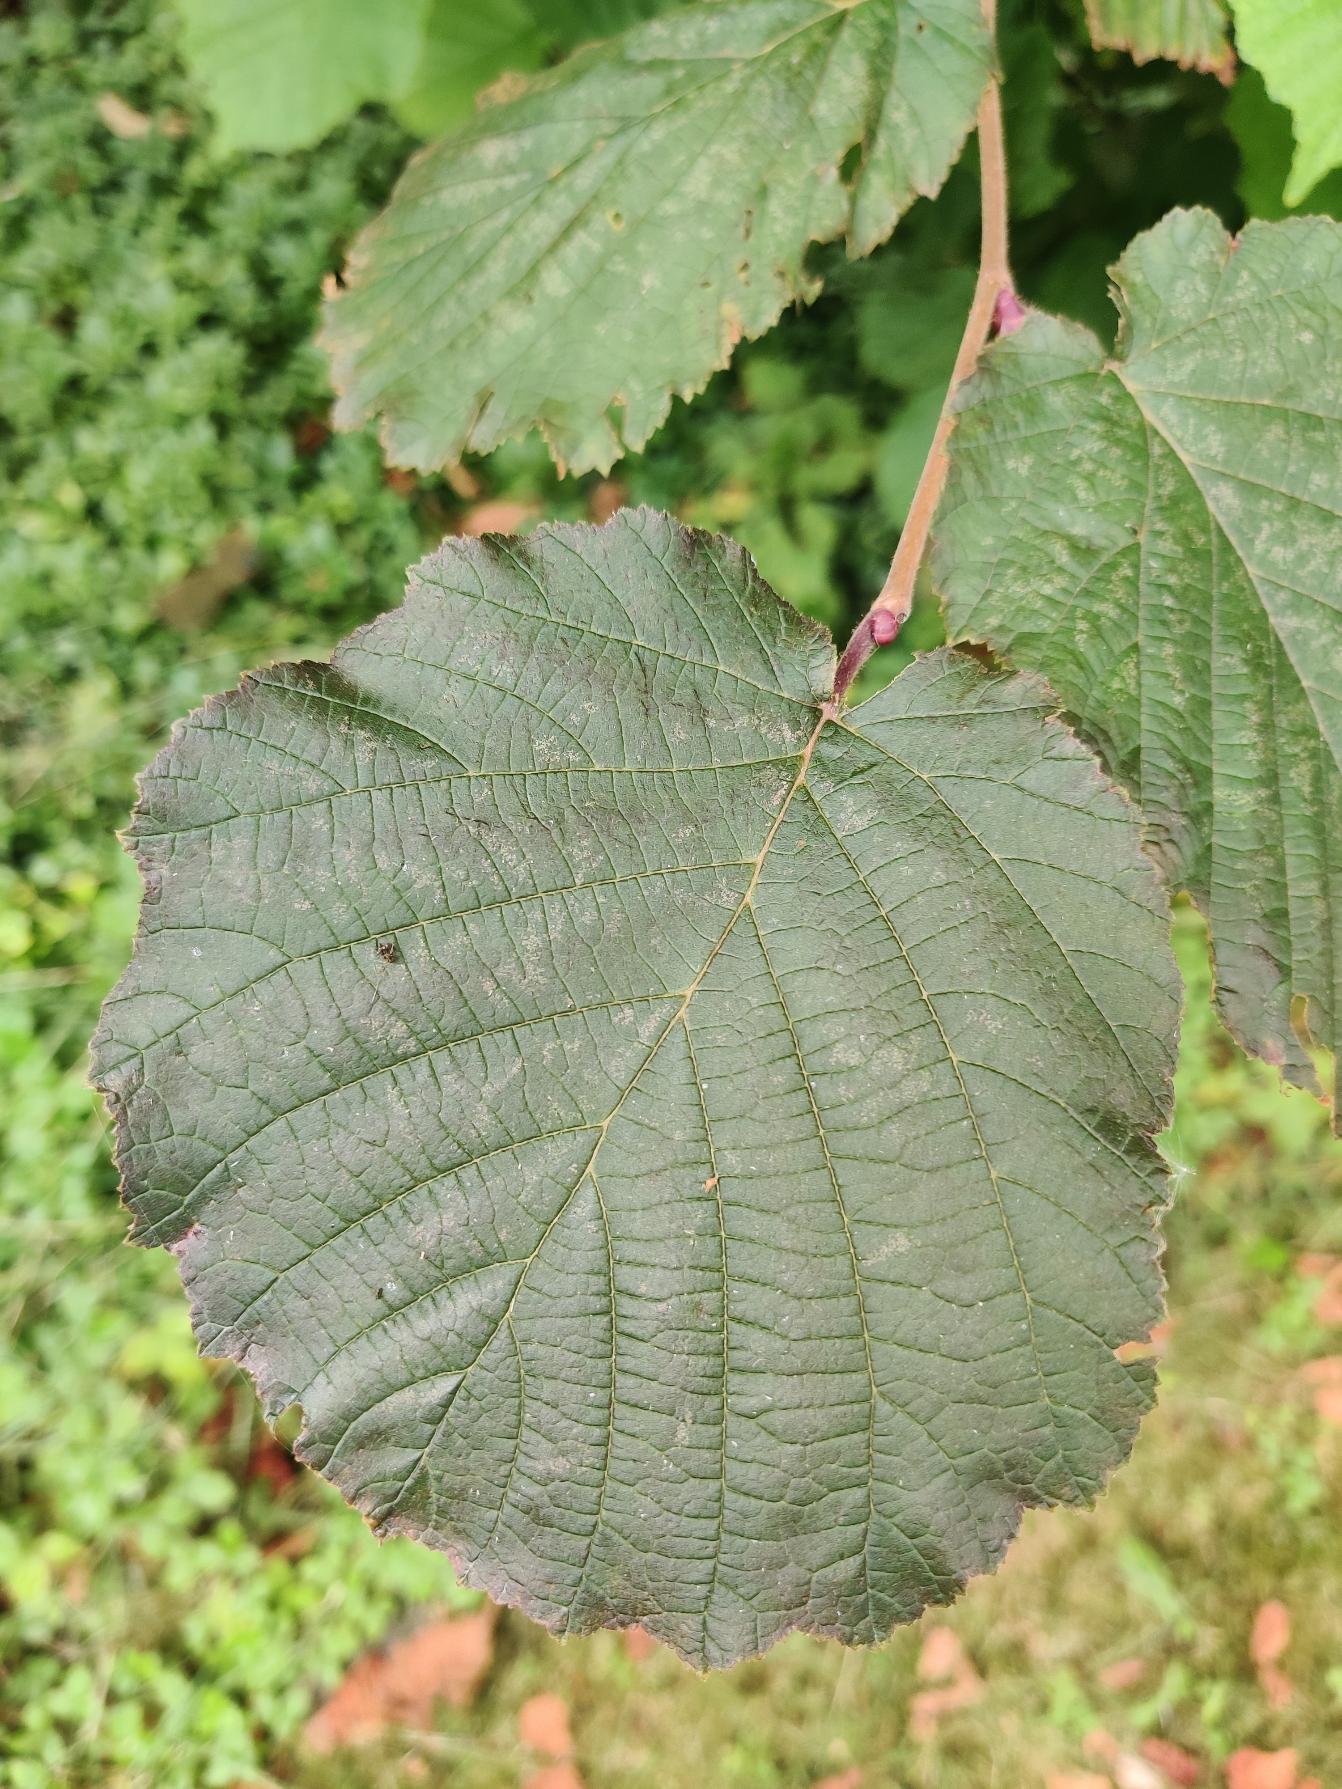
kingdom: Plantae
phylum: Tracheophyta
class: Magnoliopsida
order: Fagales
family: Betulaceae
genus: Corylus
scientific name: Corylus avellana
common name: Hassel
